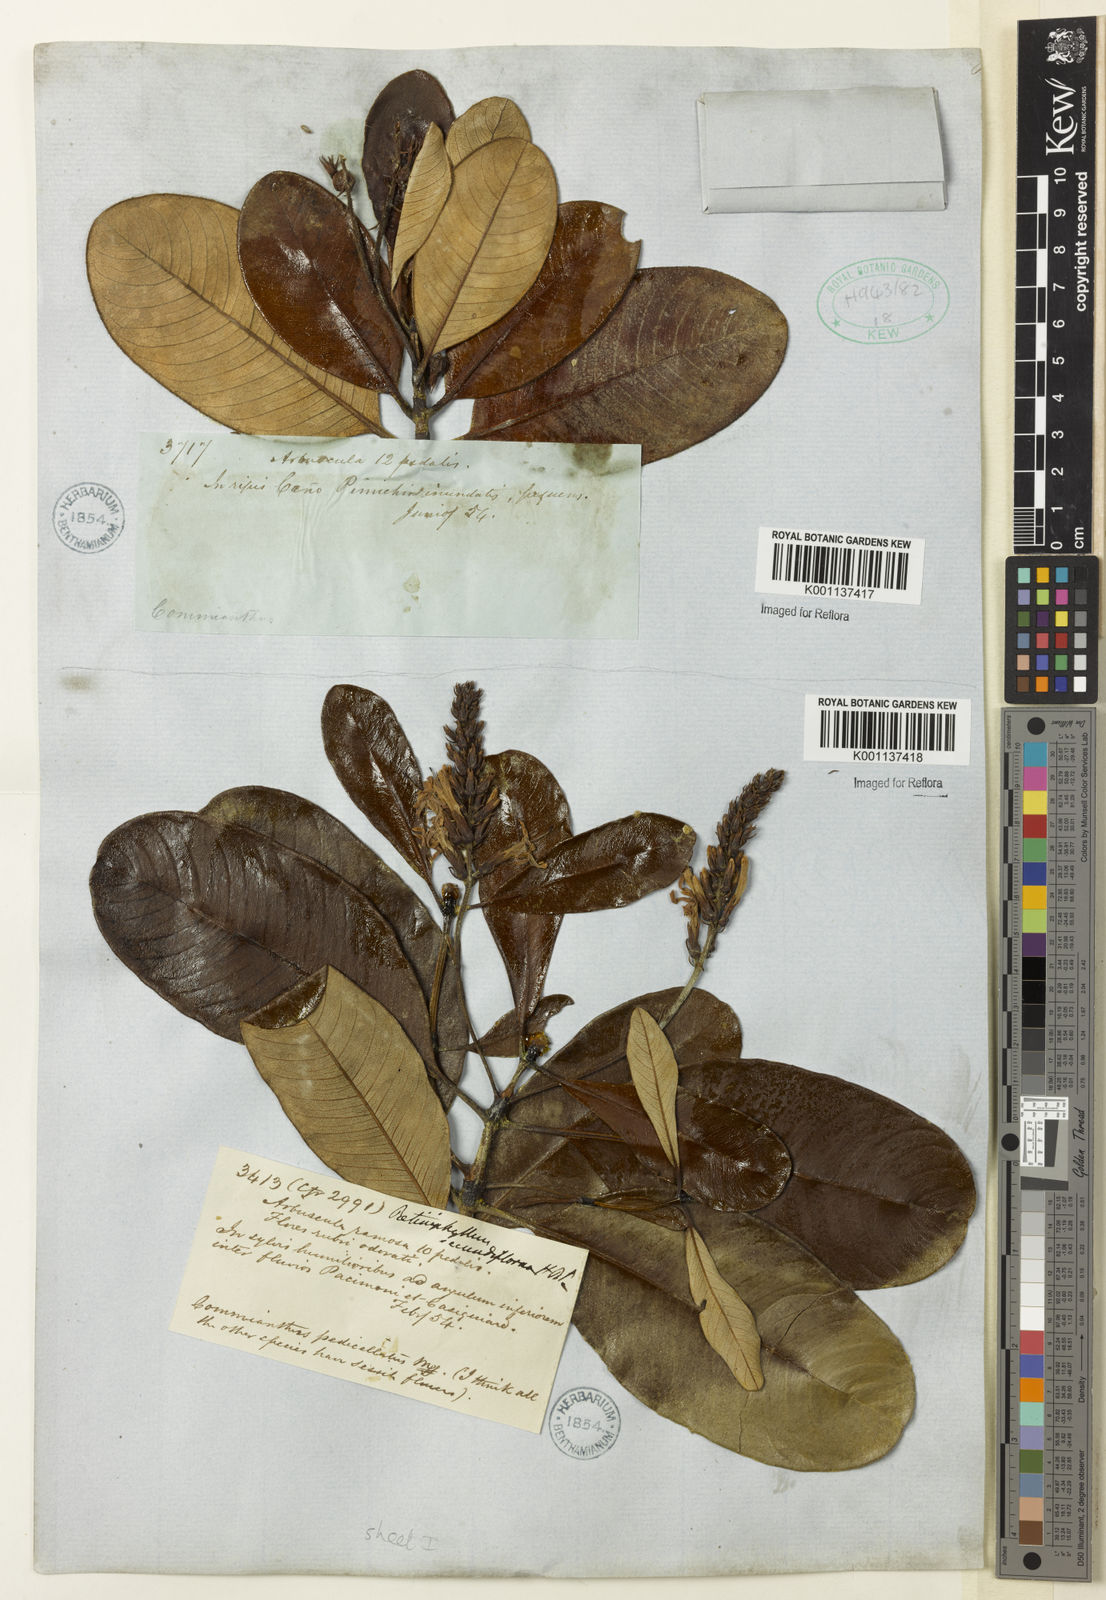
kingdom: Plantae
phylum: Tracheophyta
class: Magnoliopsida
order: Gentianales
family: Rubiaceae
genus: Retiniphyllum
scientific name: Retiniphyllum secundiflorum
